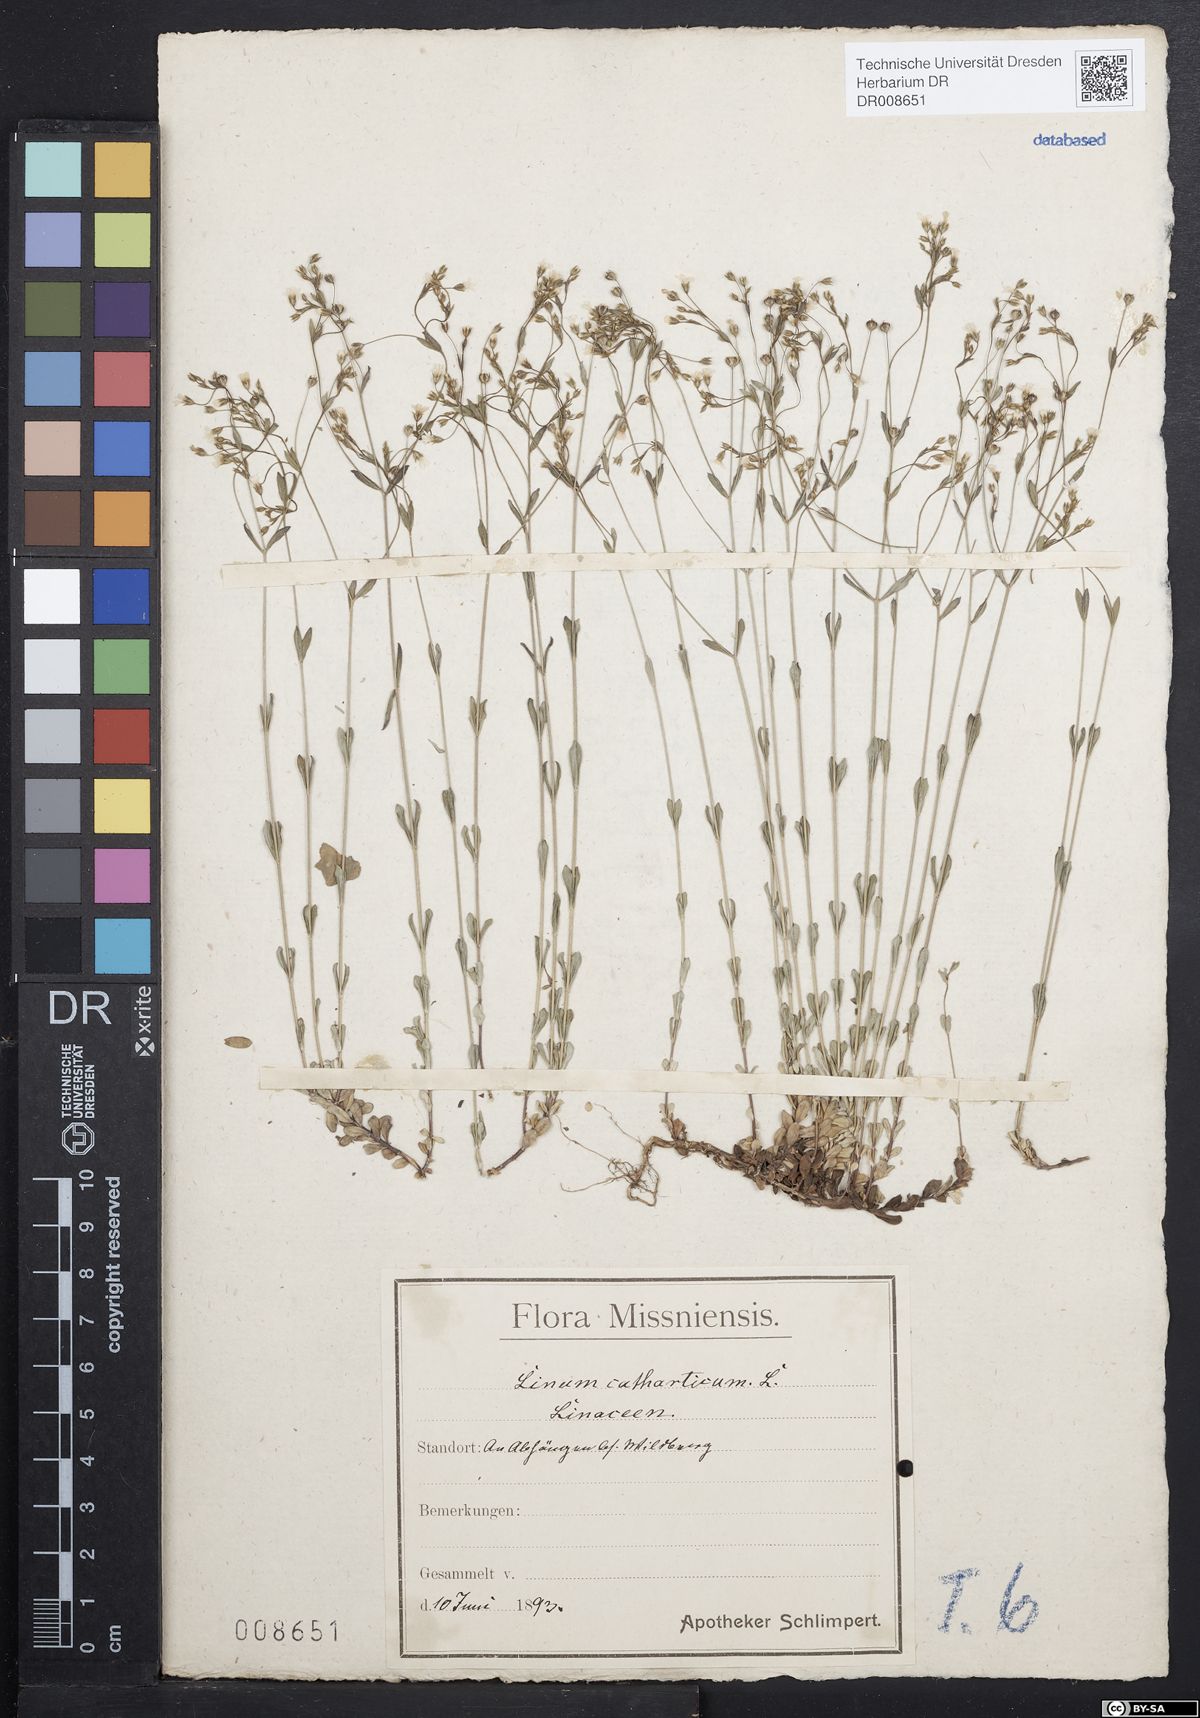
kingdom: Plantae
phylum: Tracheophyta
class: Magnoliopsida
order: Malpighiales
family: Linaceae
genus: Linum
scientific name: Linum catharticum
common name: Fairy flax
